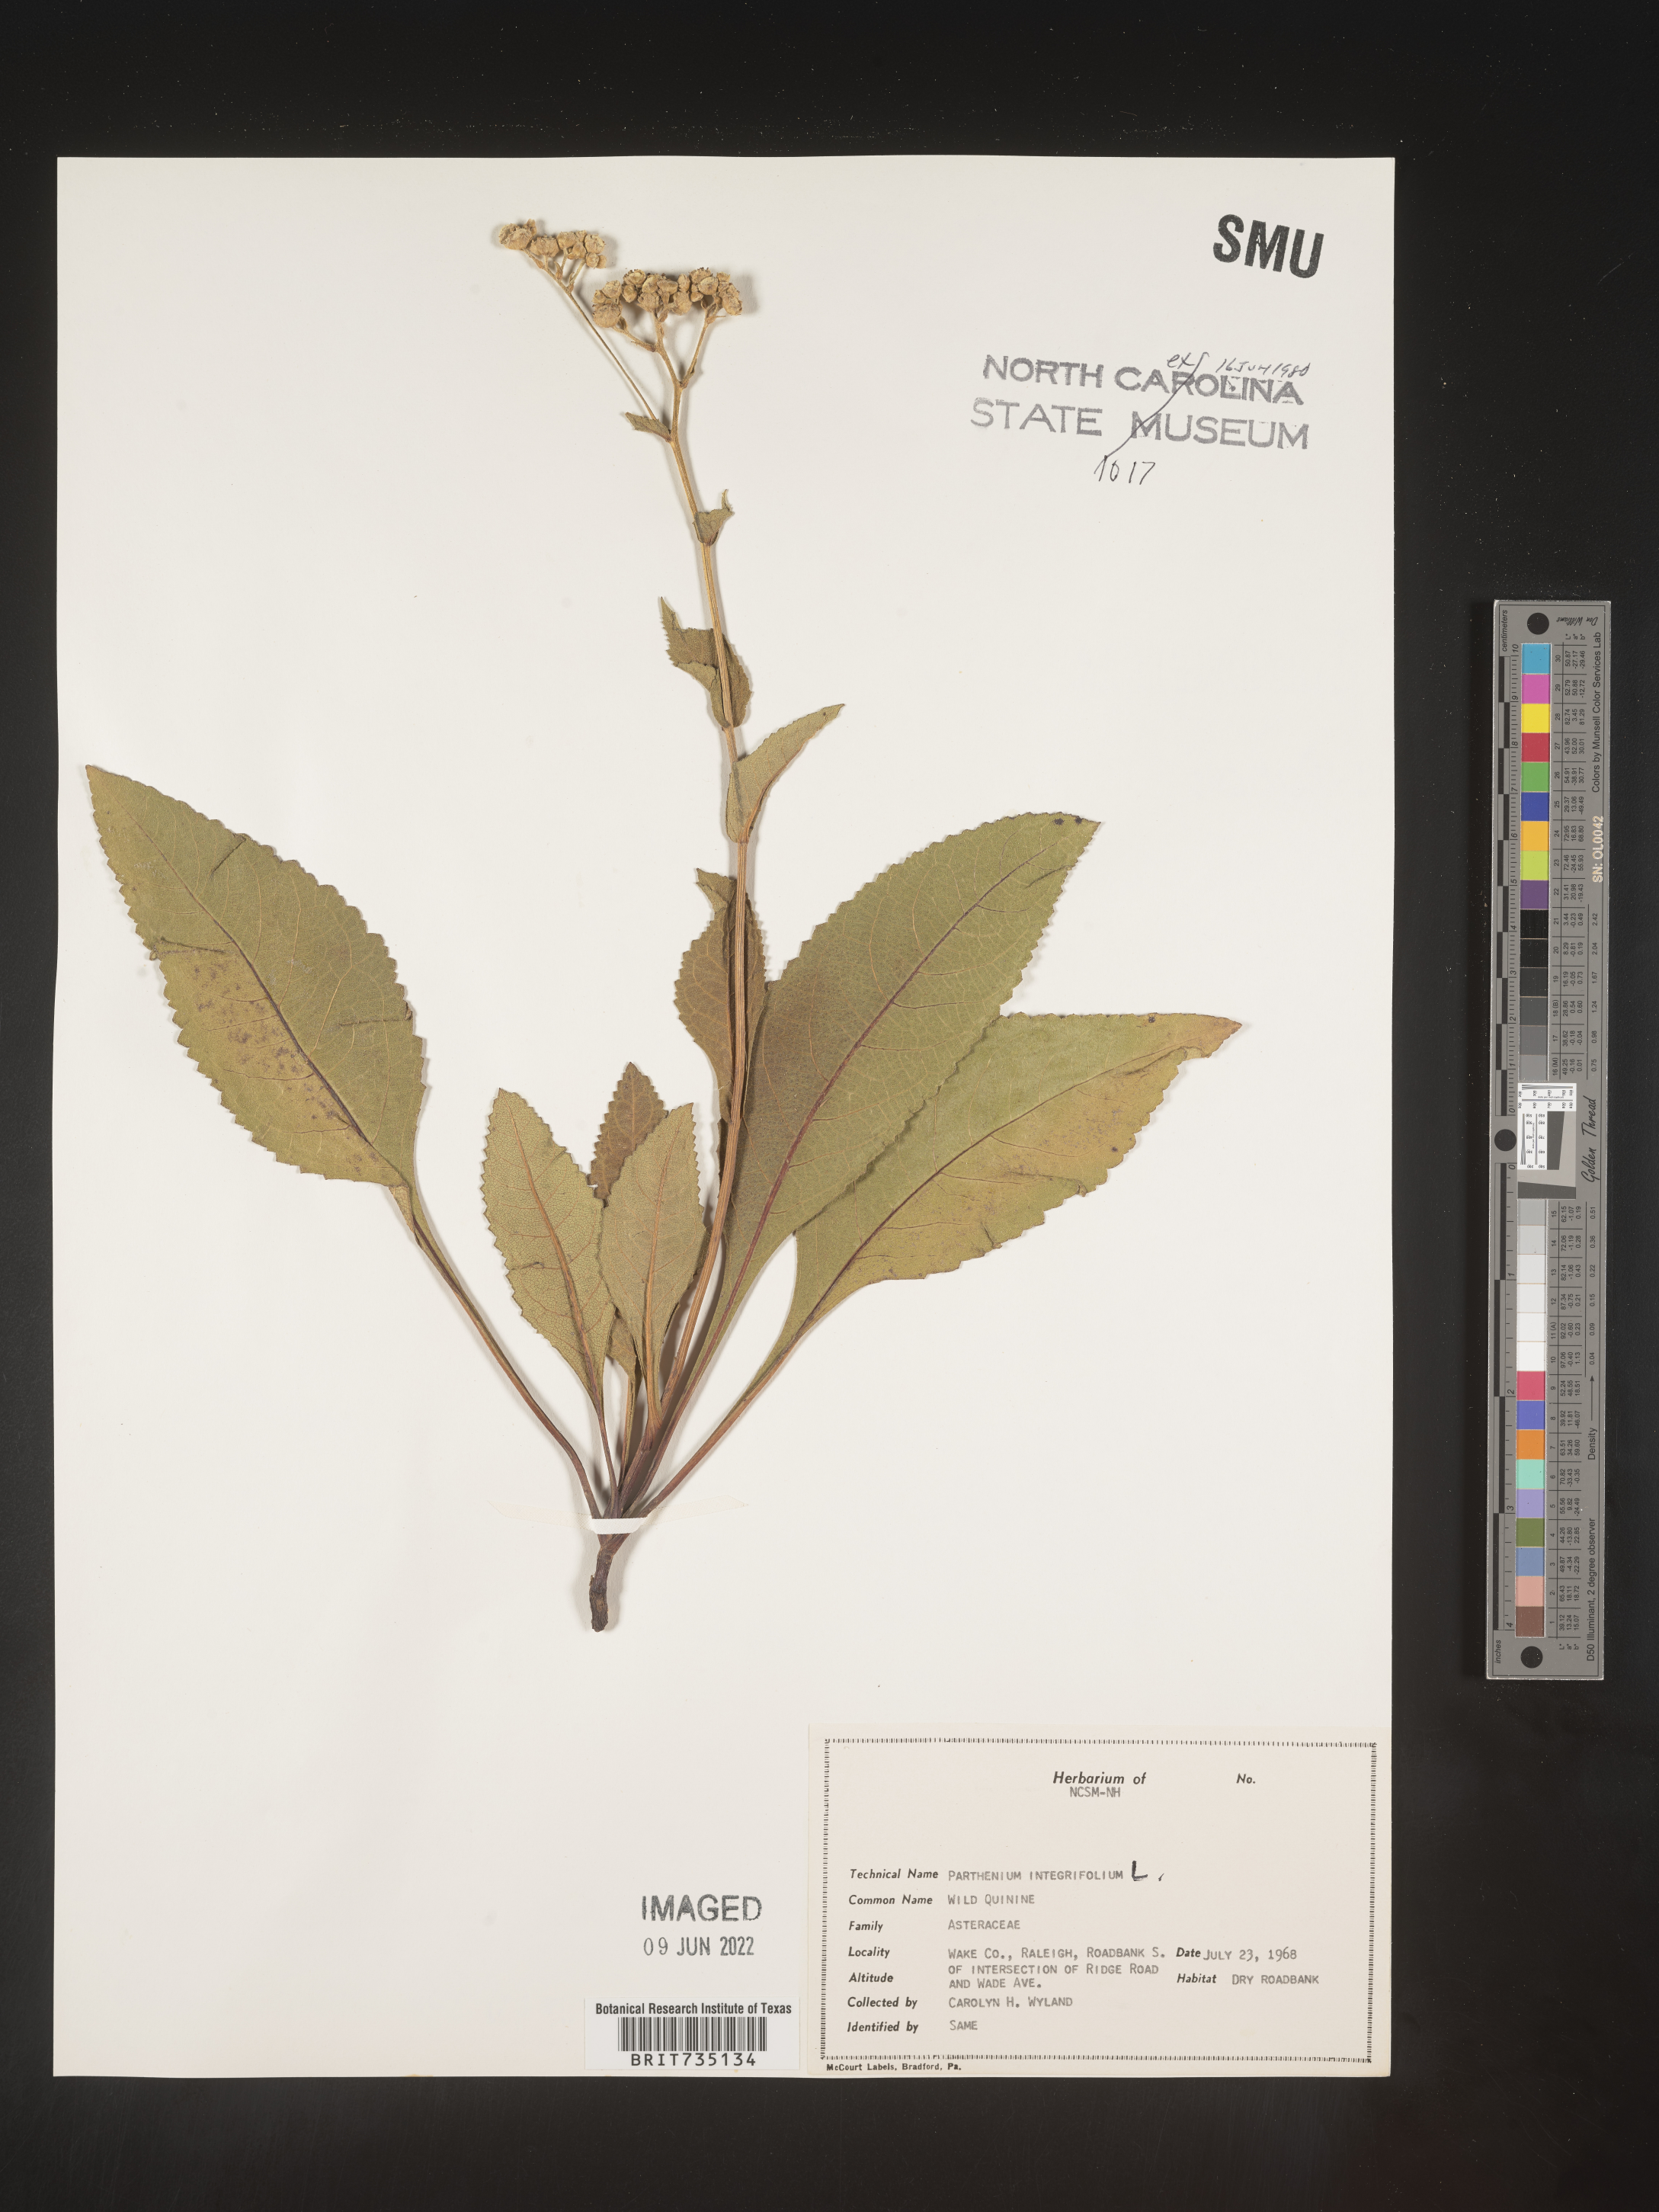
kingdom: Plantae
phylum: Tracheophyta
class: Magnoliopsida
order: Asterales
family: Asteraceae
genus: Parthenium
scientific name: Parthenium integrifolium
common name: American feverfew
